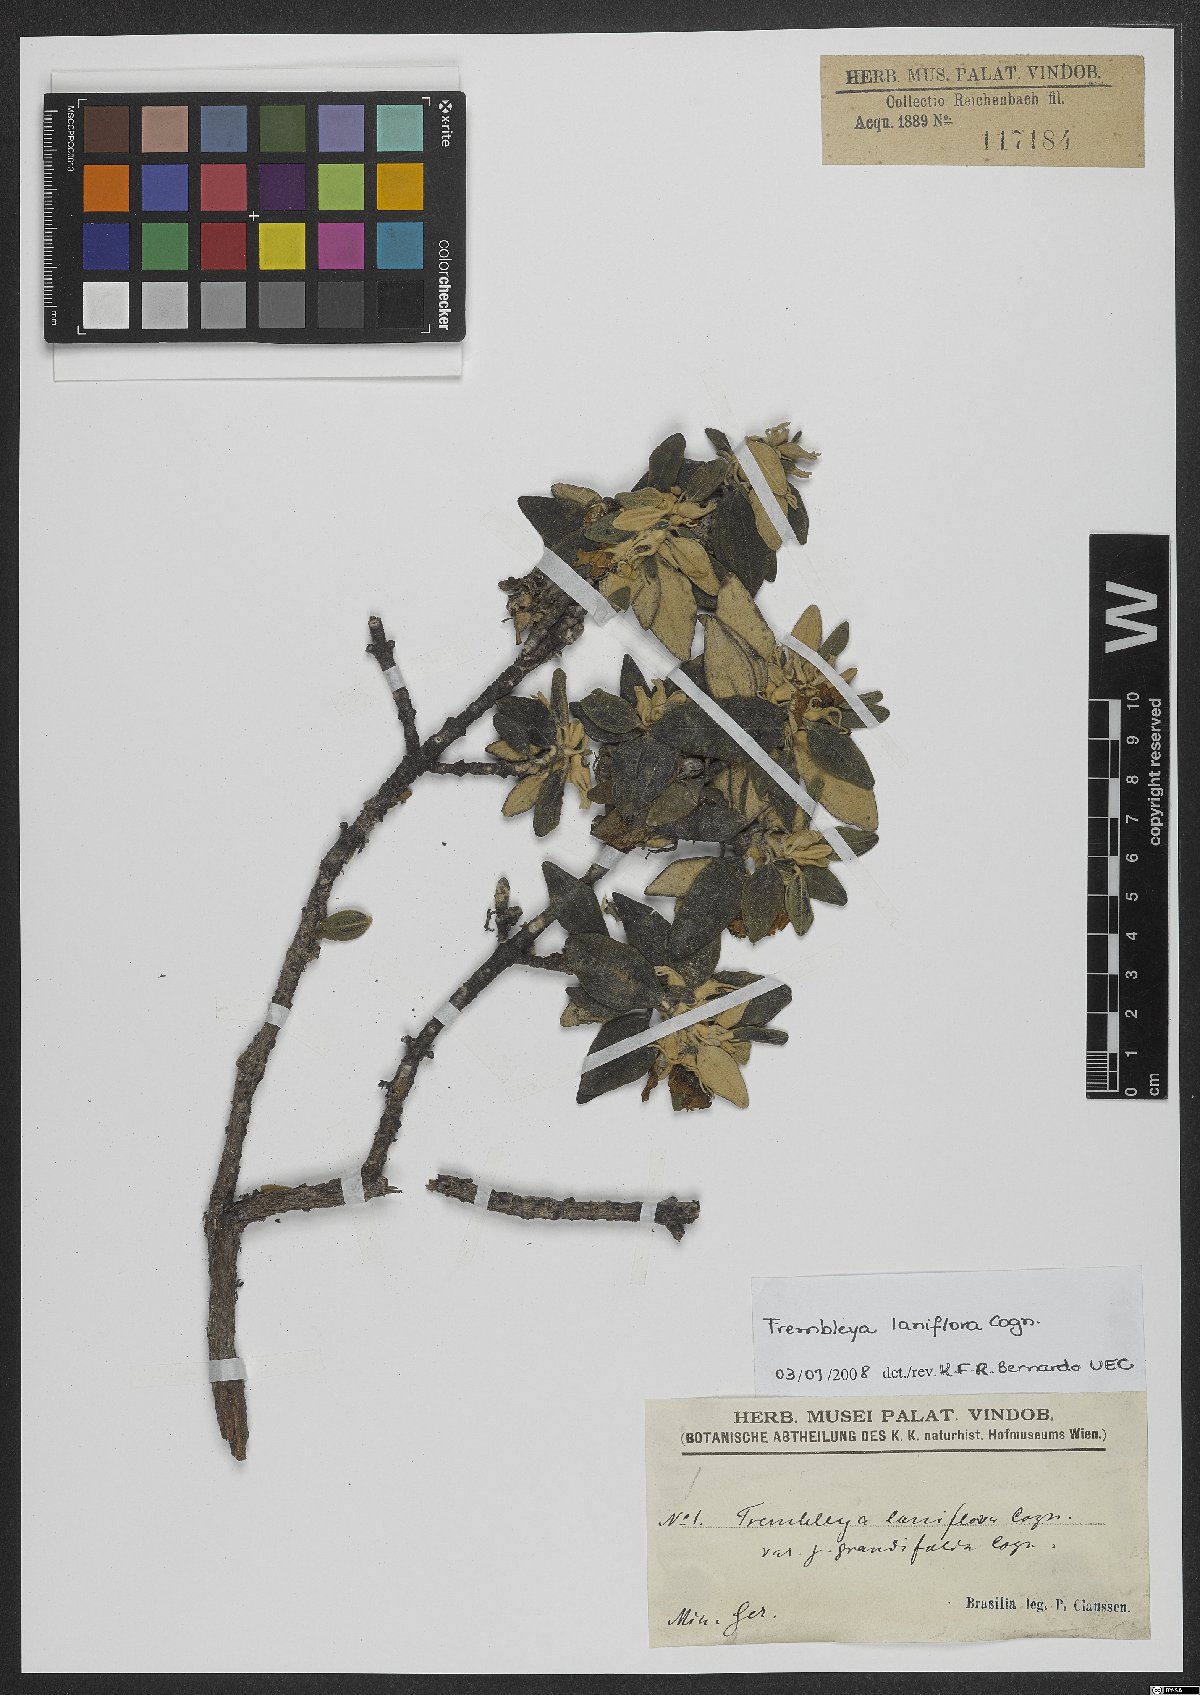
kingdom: Plantae
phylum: Tracheophyta
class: Magnoliopsida
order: Myrtales
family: Melastomataceae
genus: Microlicia
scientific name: Microlicia laniflora
